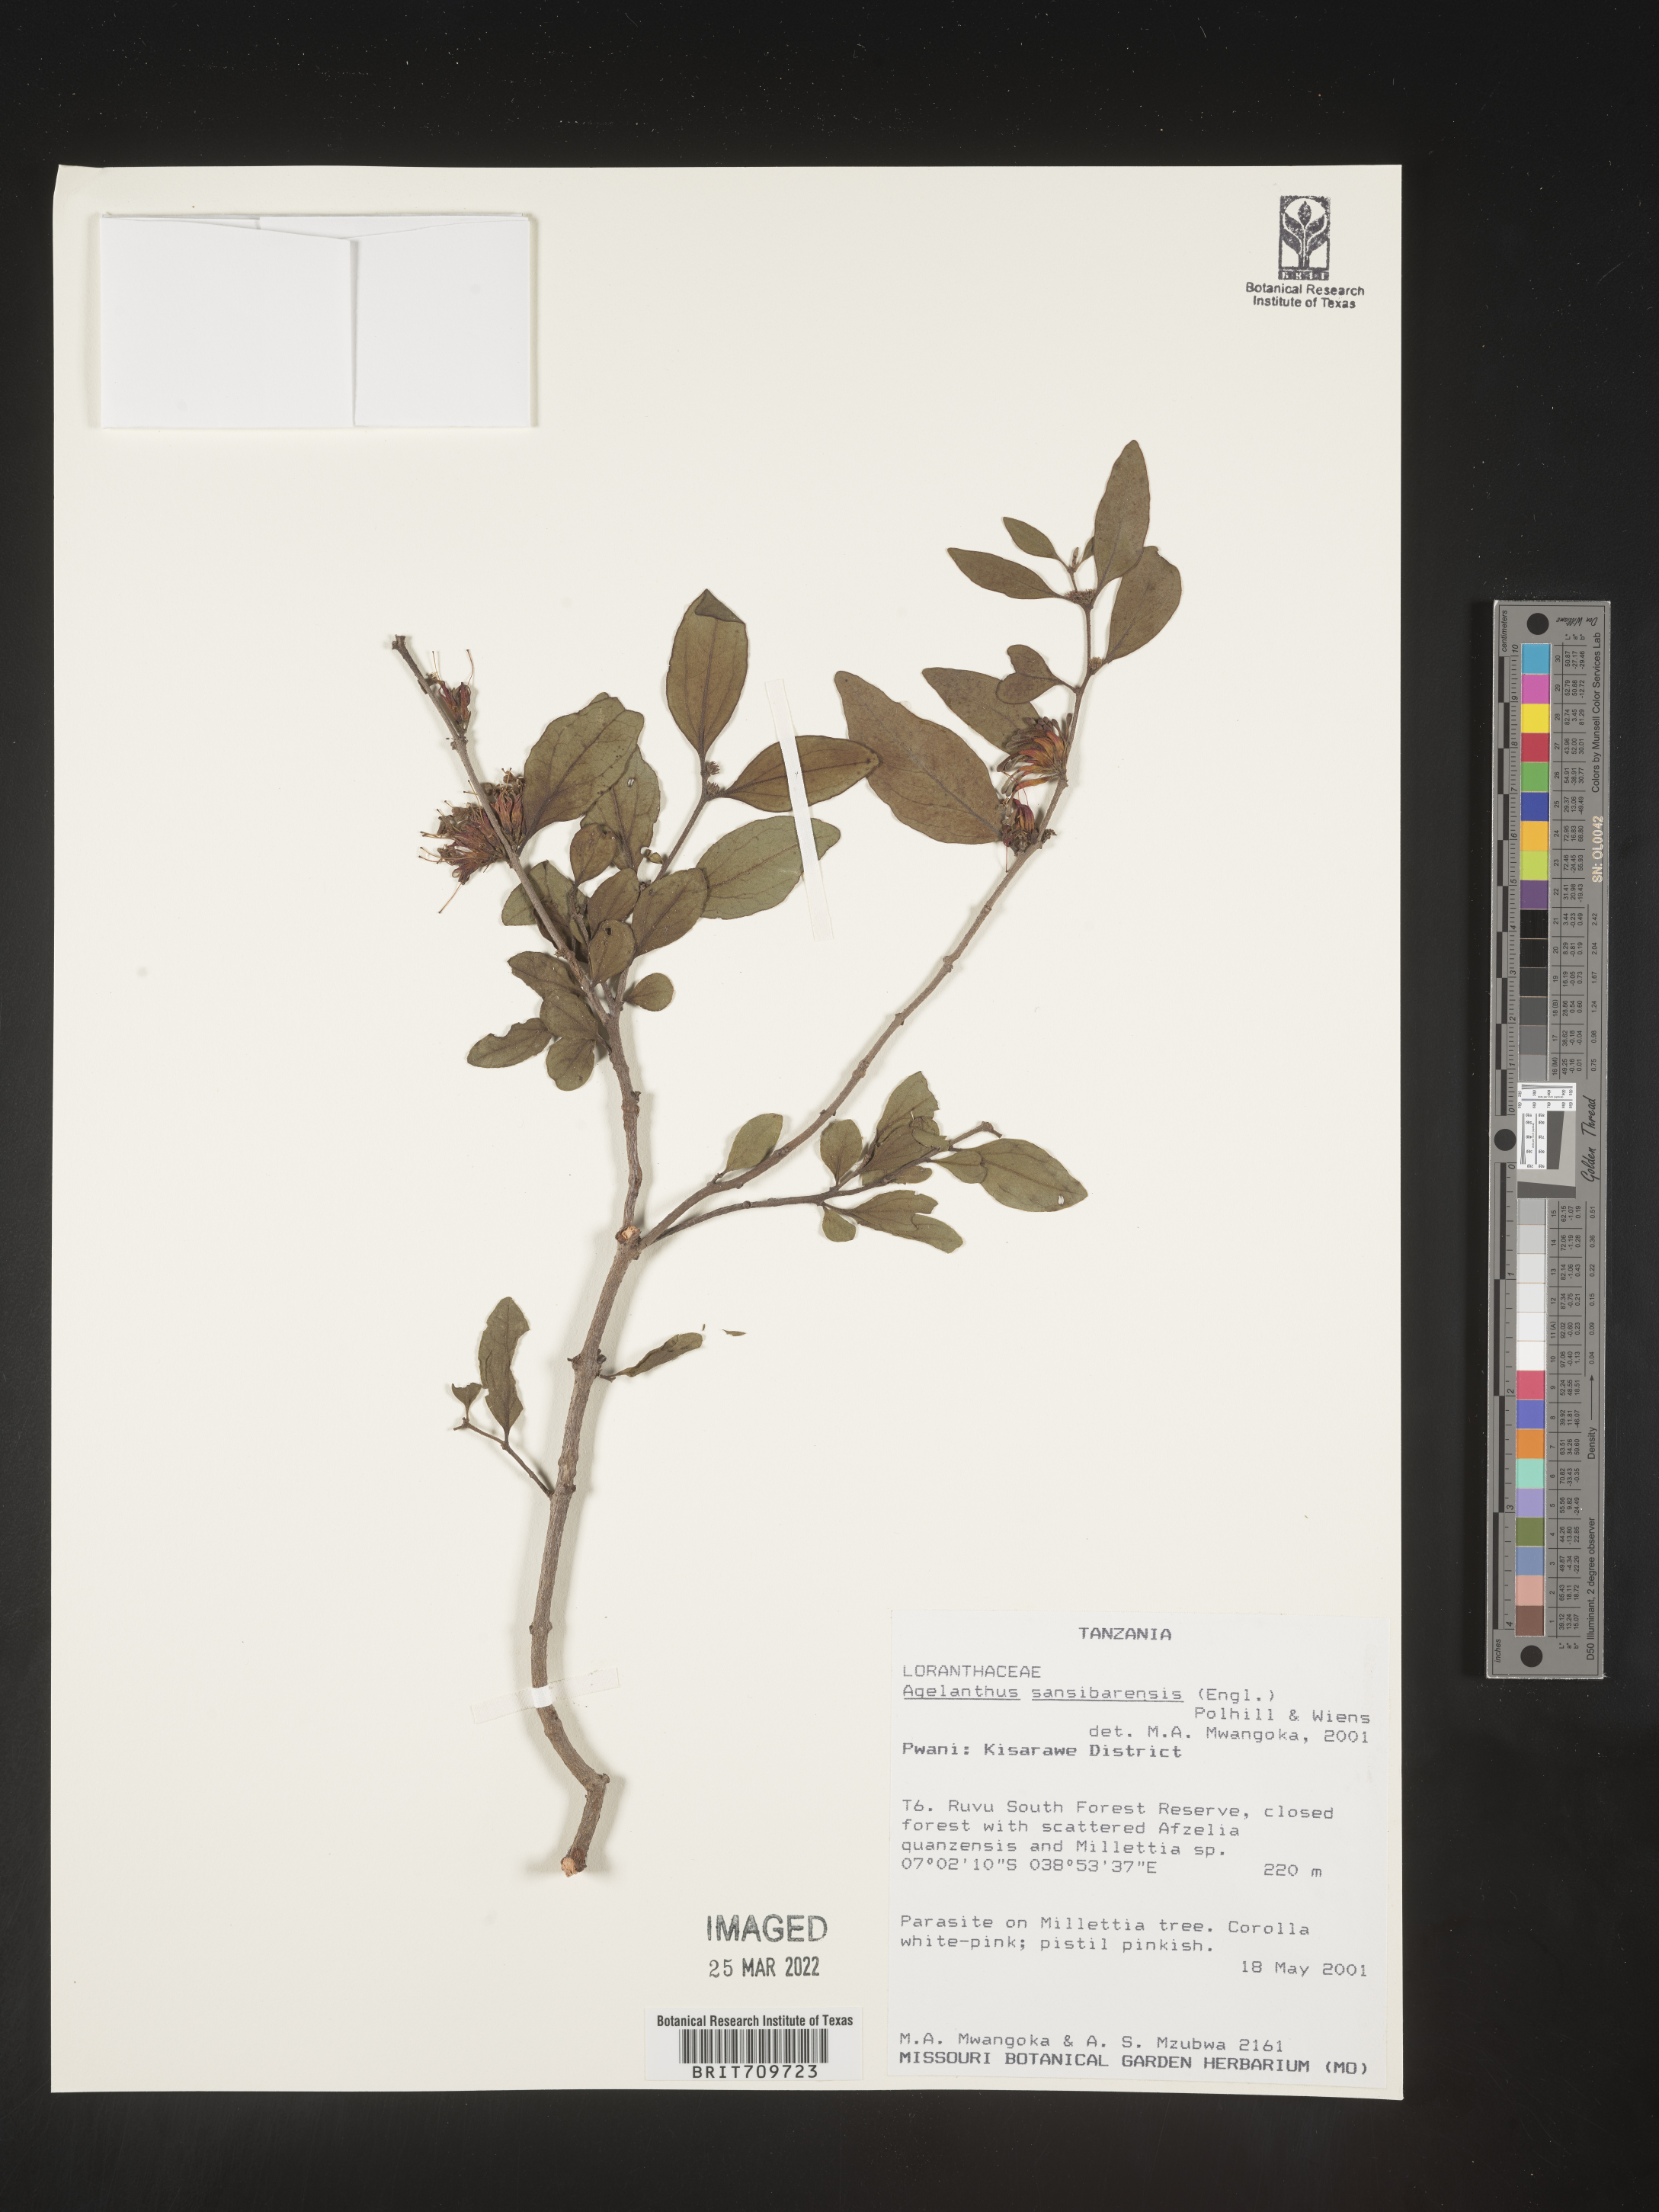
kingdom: Plantae
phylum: Tracheophyta
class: Magnoliopsida
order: Santalales
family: Loranthaceae
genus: Agelanthus
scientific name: Agelanthus
